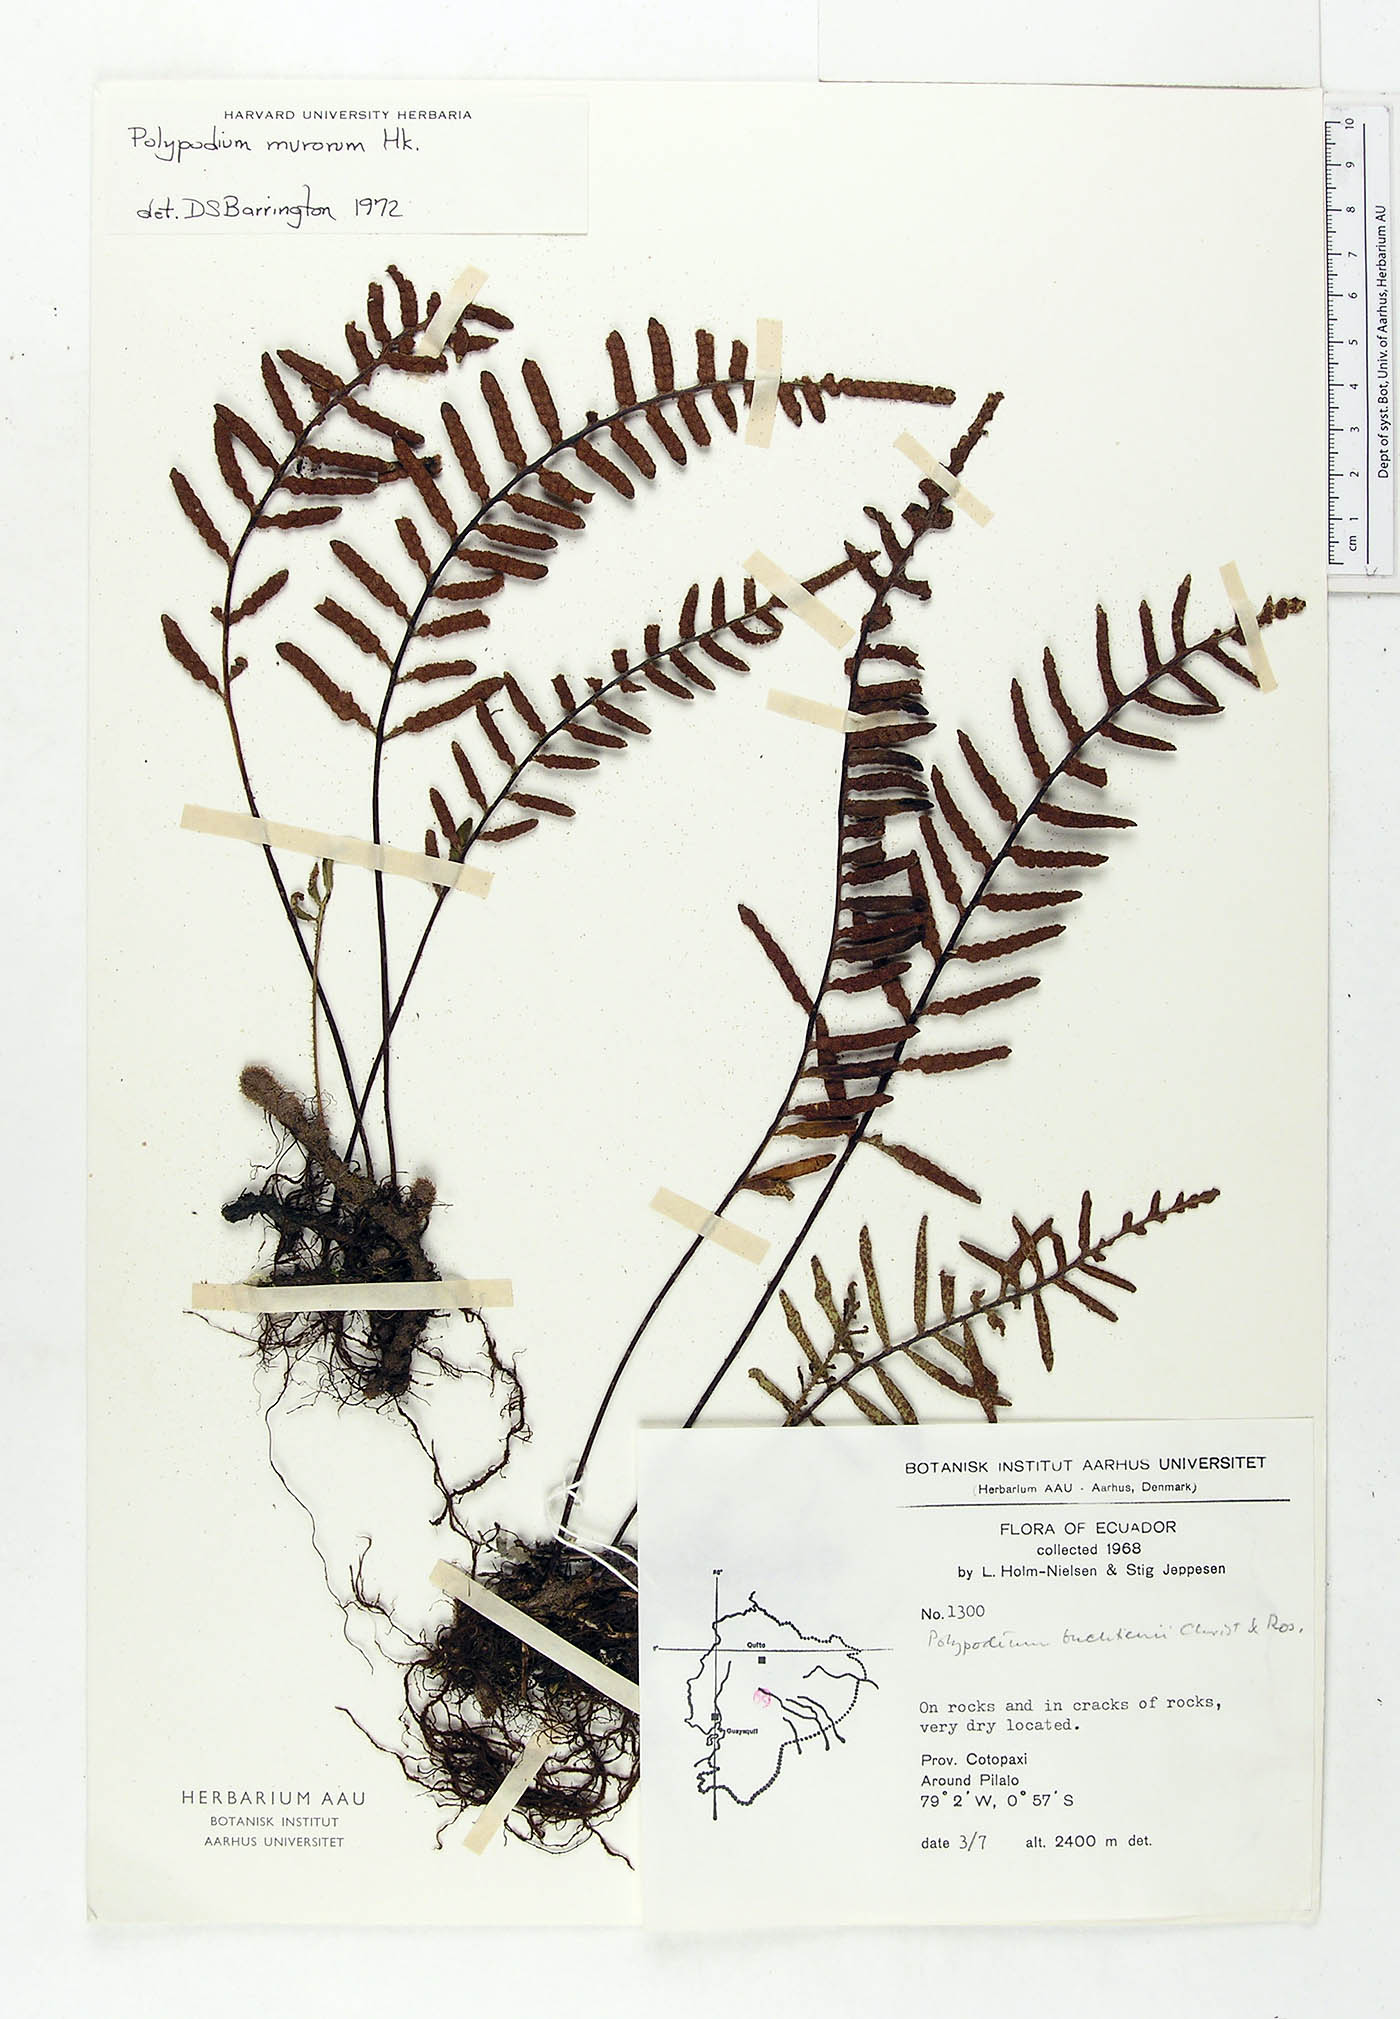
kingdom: Plantae
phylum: Tracheophyta
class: Polypodiopsida
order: Polypodiales
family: Polypodiaceae
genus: Pleopeltis
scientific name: Pleopeltis buchtienii
